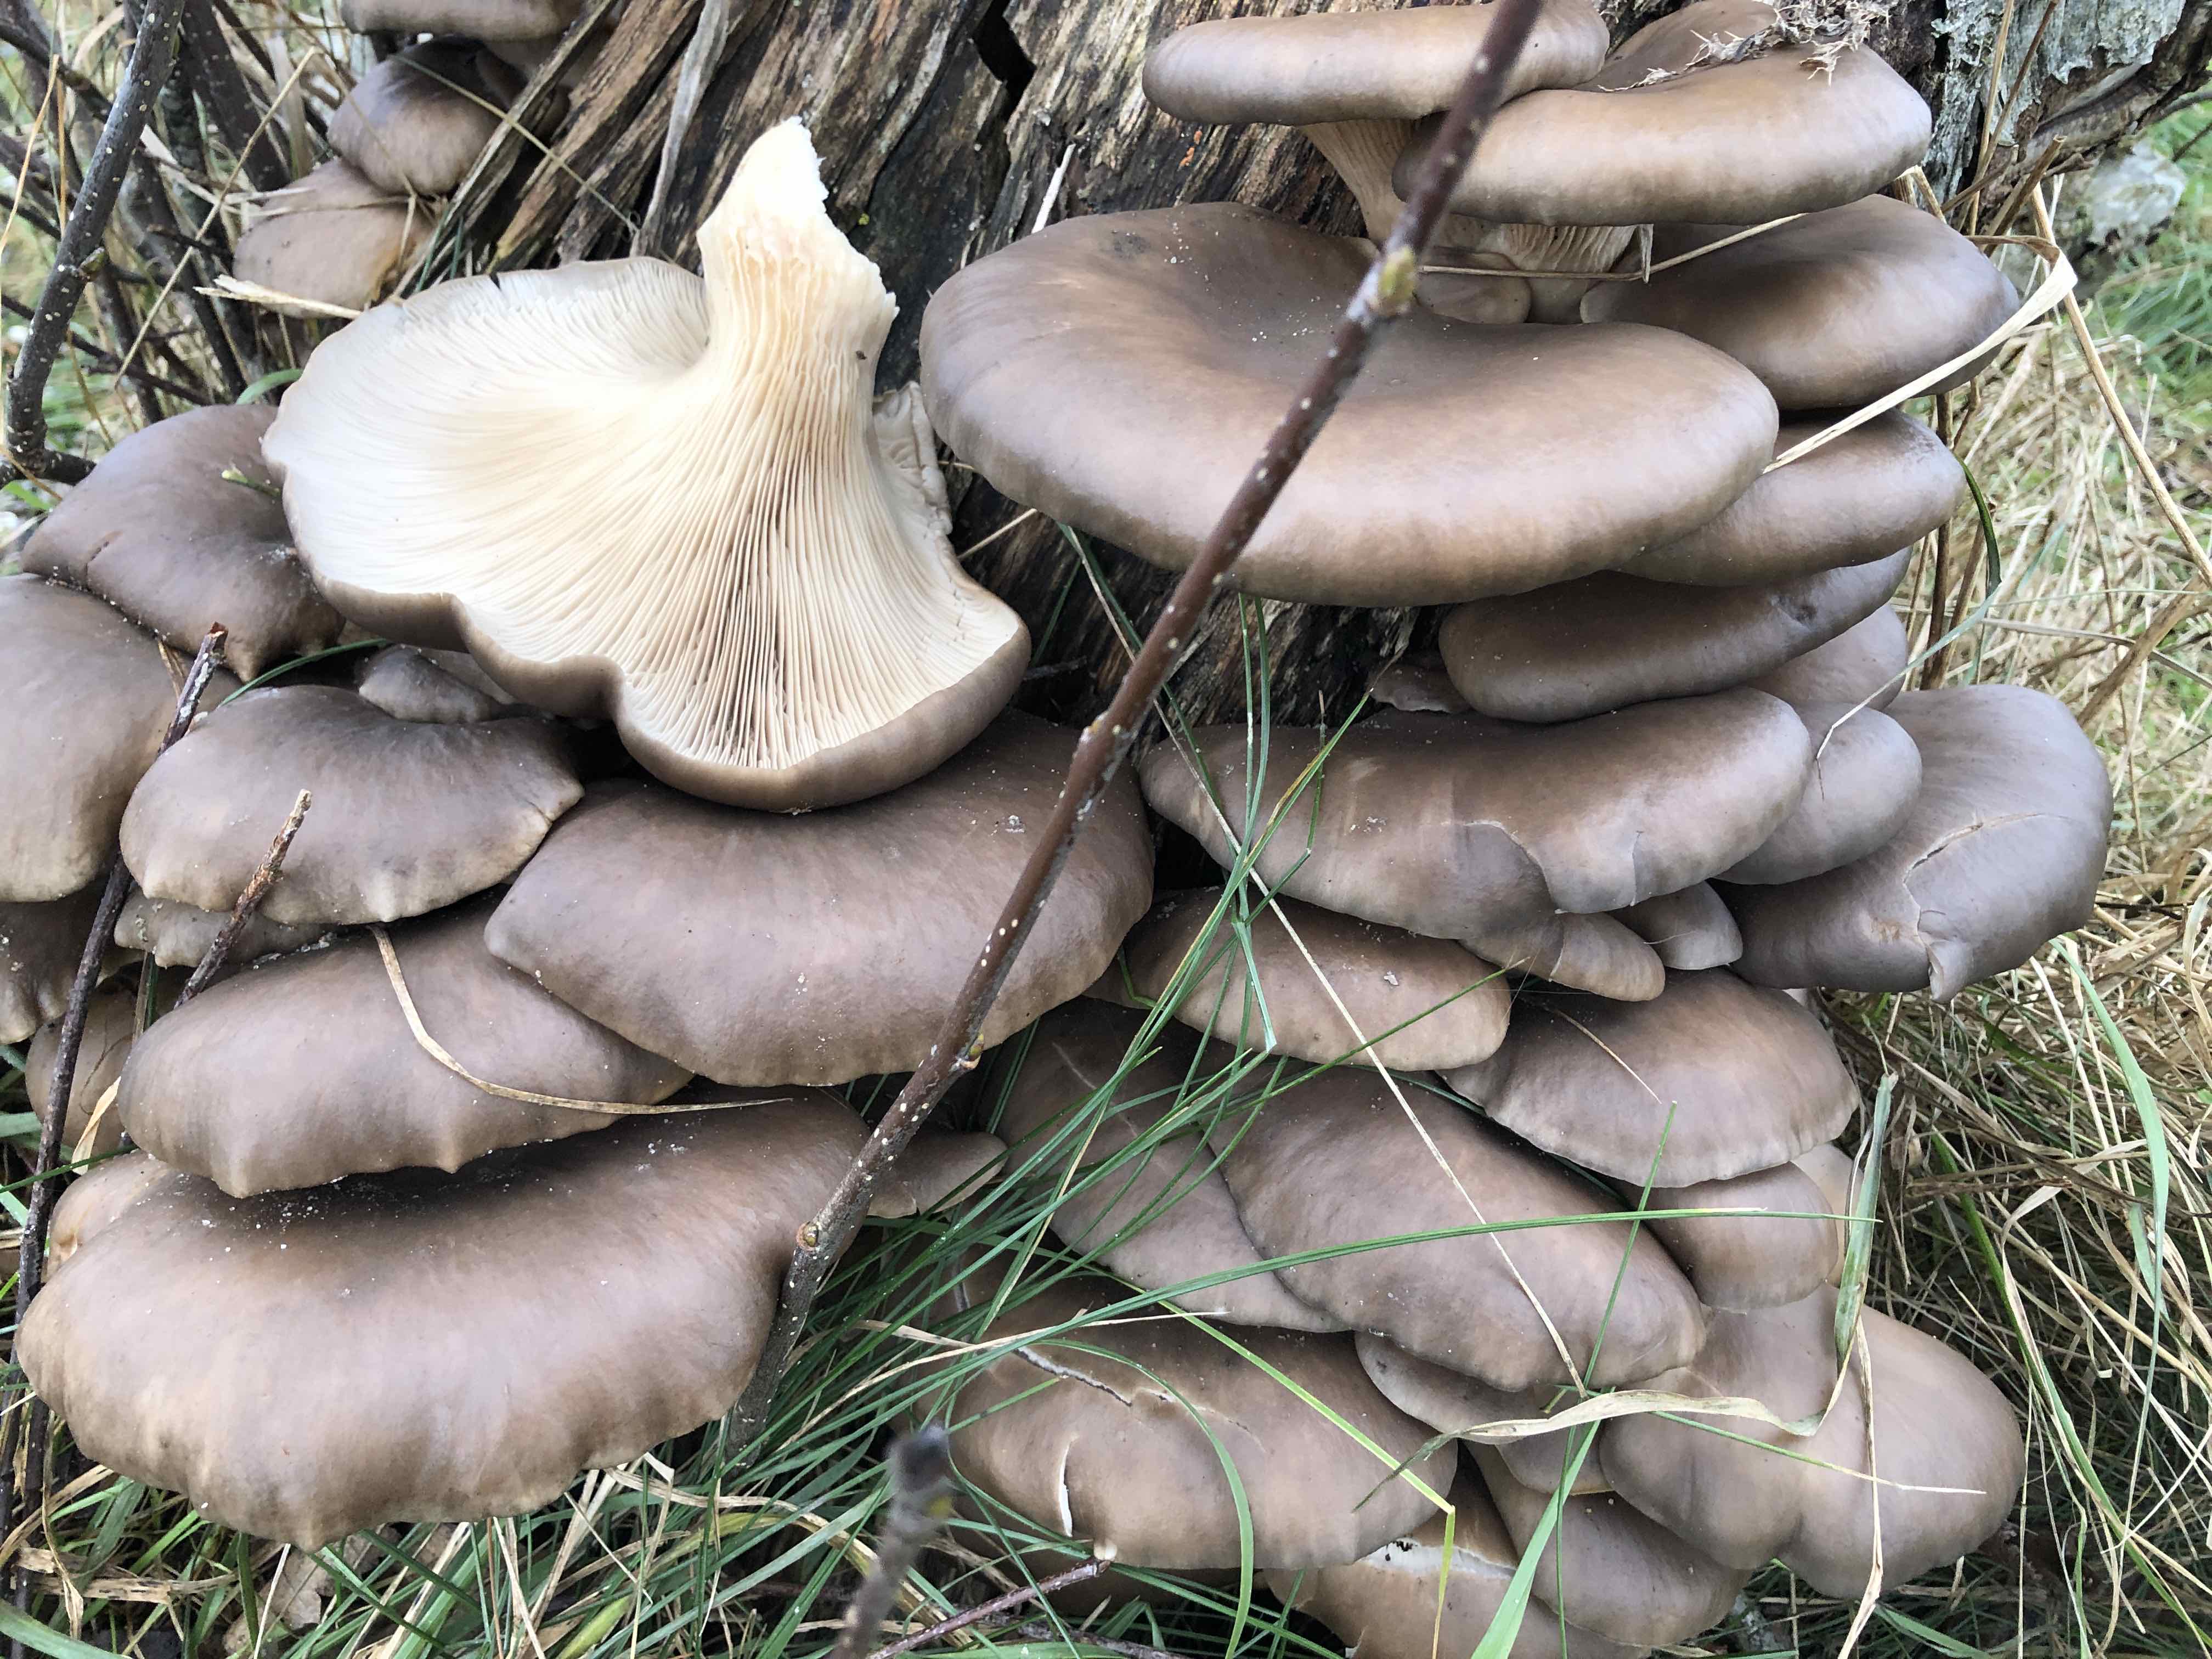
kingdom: Fungi
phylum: Basidiomycota
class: Agaricomycetes
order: Agaricales
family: Pleurotaceae
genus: Pleurotus
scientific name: Pleurotus ostreatus
